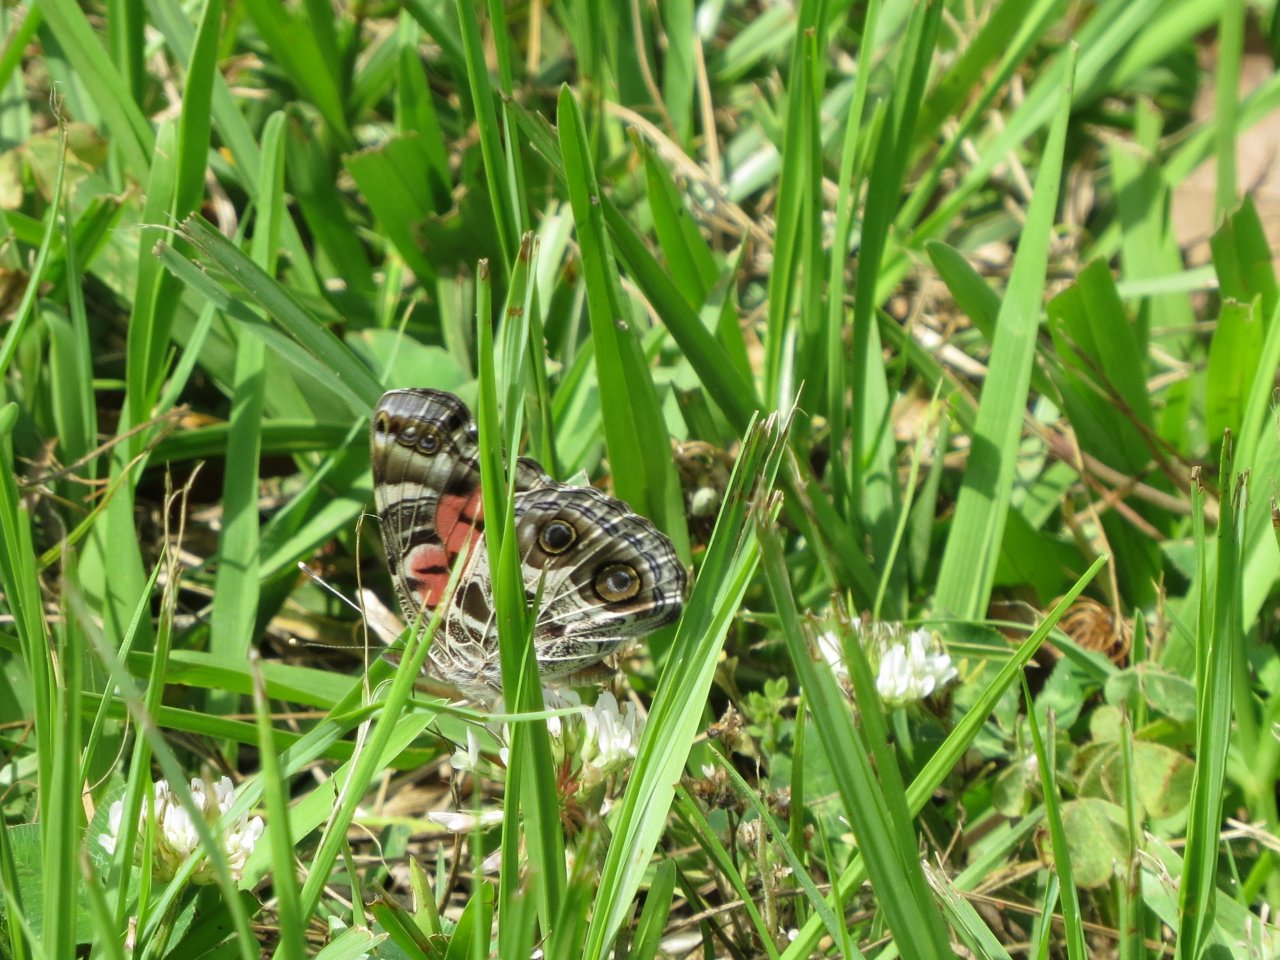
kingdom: Animalia
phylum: Arthropoda
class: Insecta
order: Lepidoptera
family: Nymphalidae
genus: Vanessa
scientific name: Vanessa virginiensis
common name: American Lady
